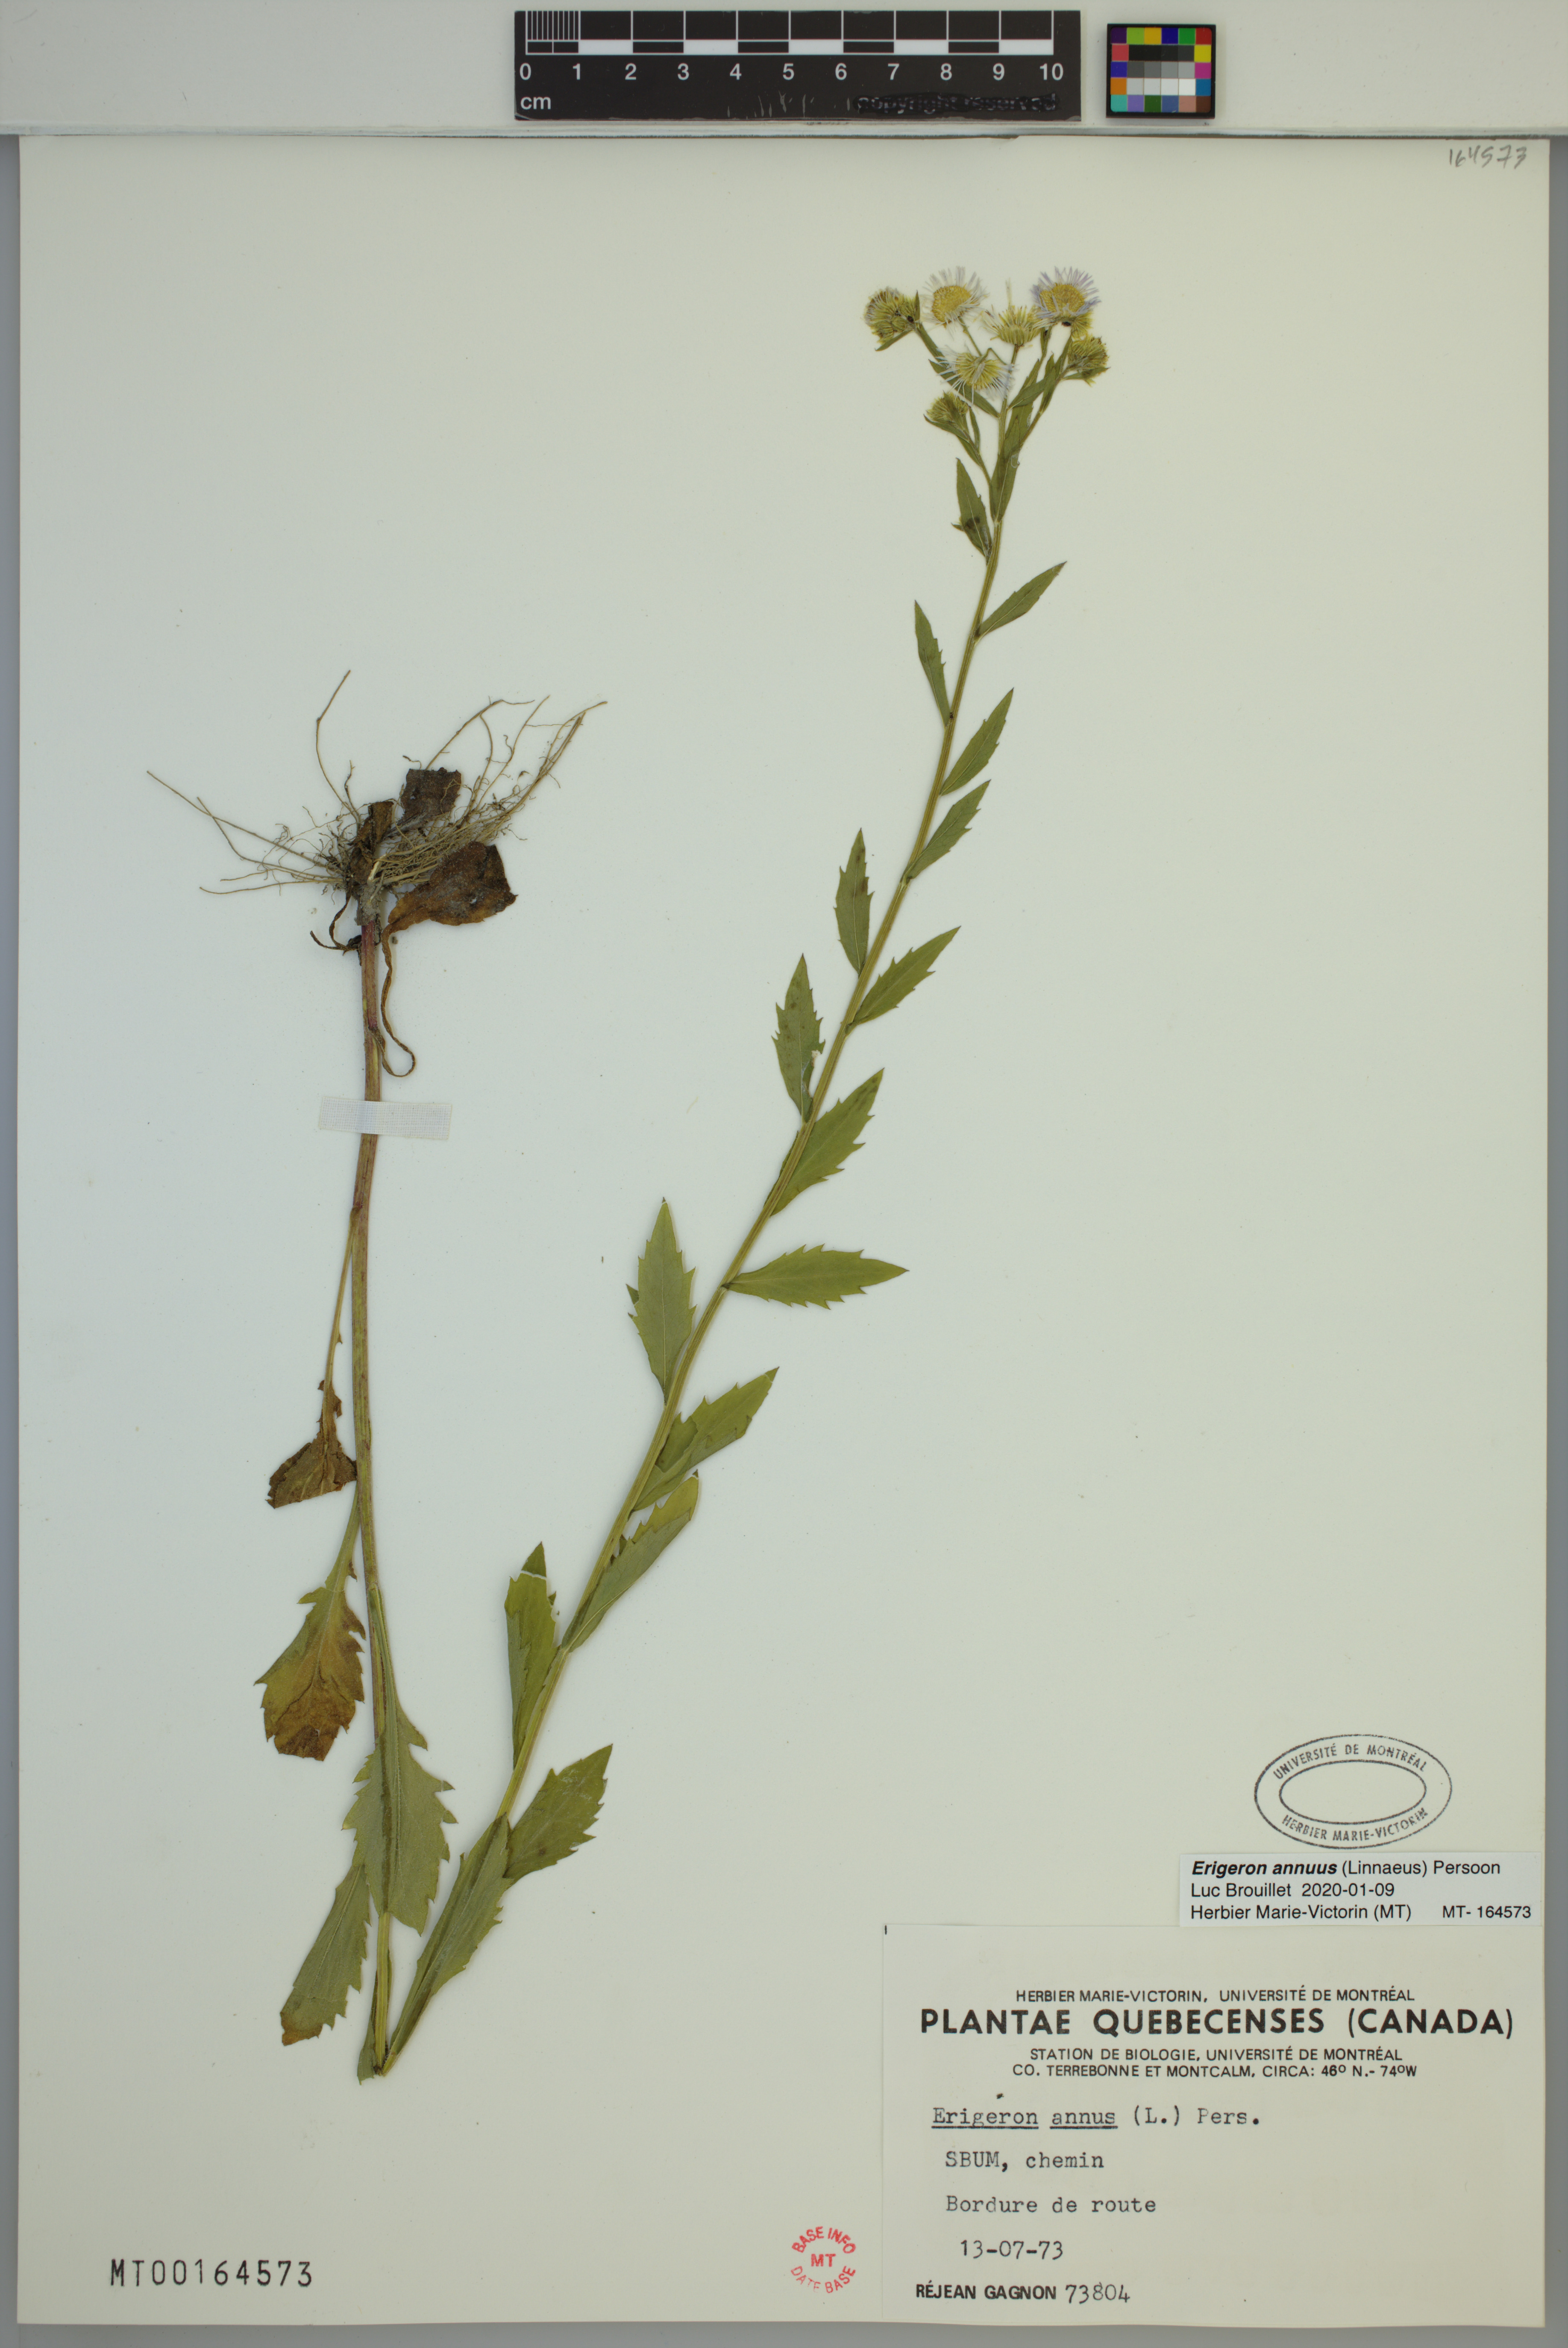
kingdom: Plantae
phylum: Tracheophyta
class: Magnoliopsida
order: Asterales
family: Asteraceae
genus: Erigeron
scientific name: Erigeron annuus
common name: Tall fleabane
